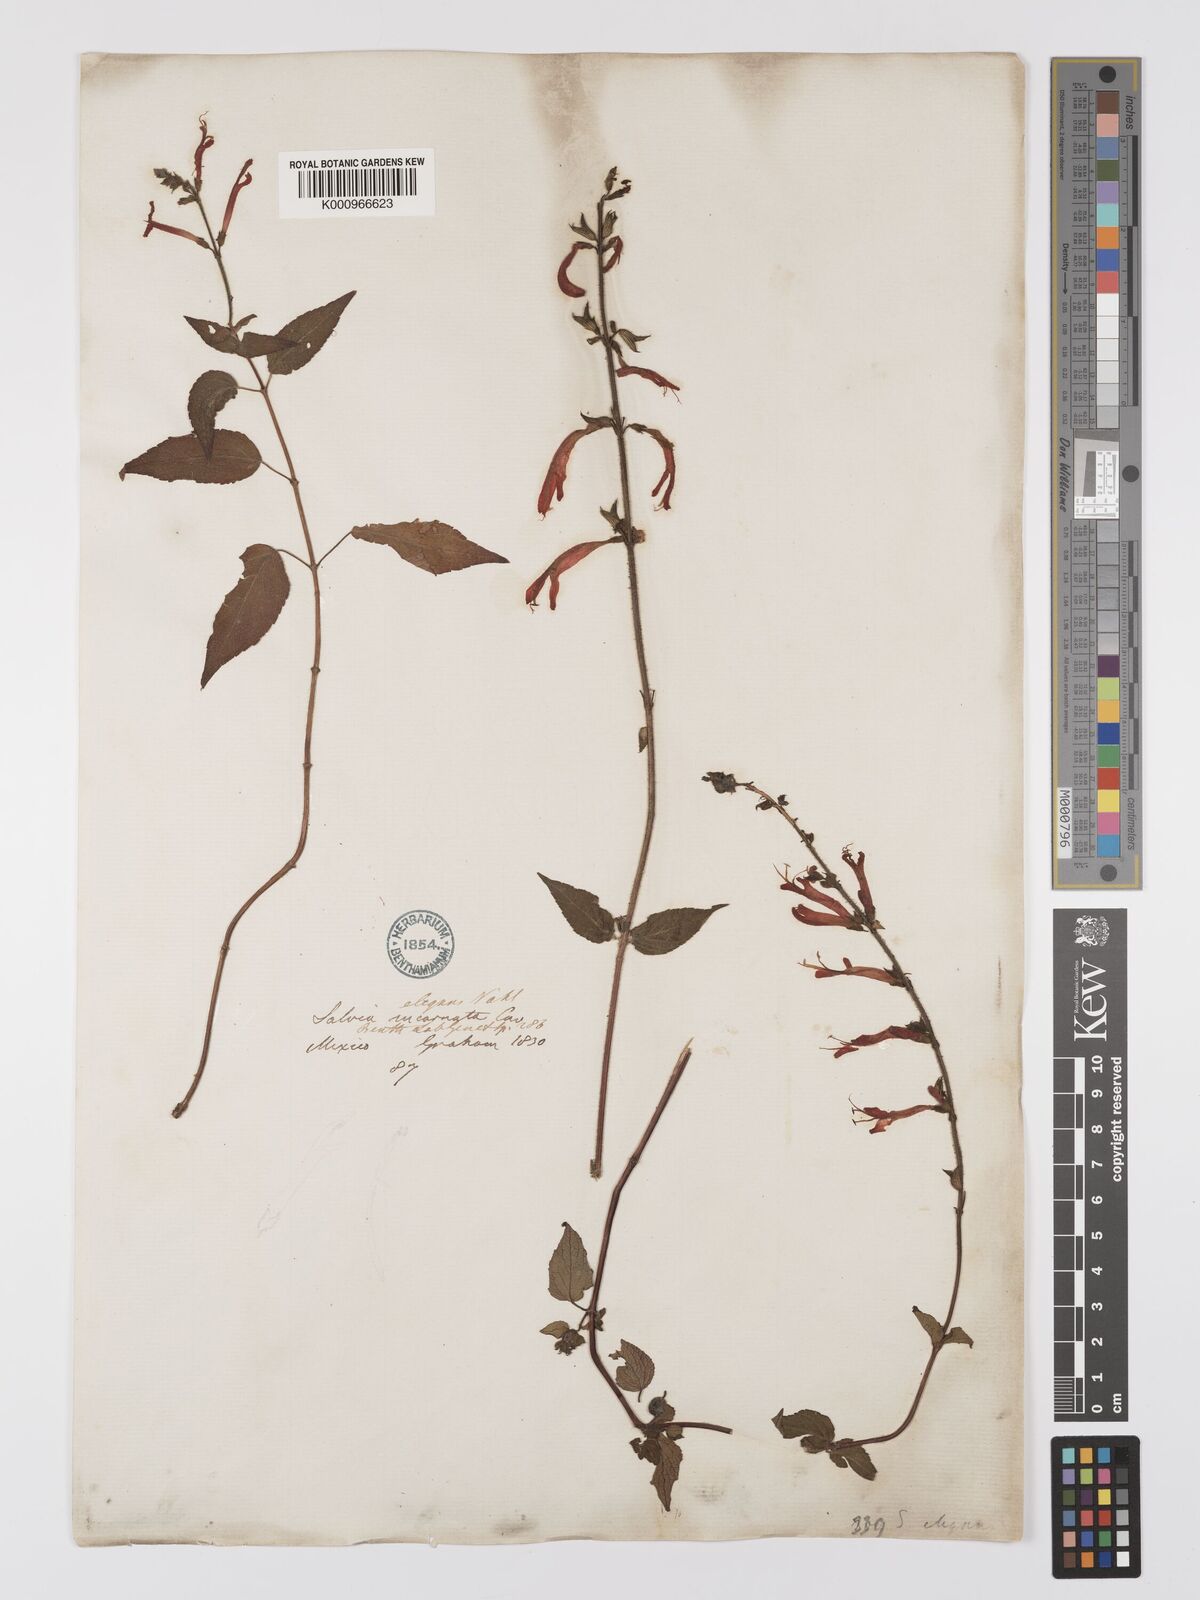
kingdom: Plantae
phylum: Tracheophyta
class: Magnoliopsida
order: Lamiales
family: Lamiaceae
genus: Salvia
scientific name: Salvia elegans
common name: Pineapple sage
